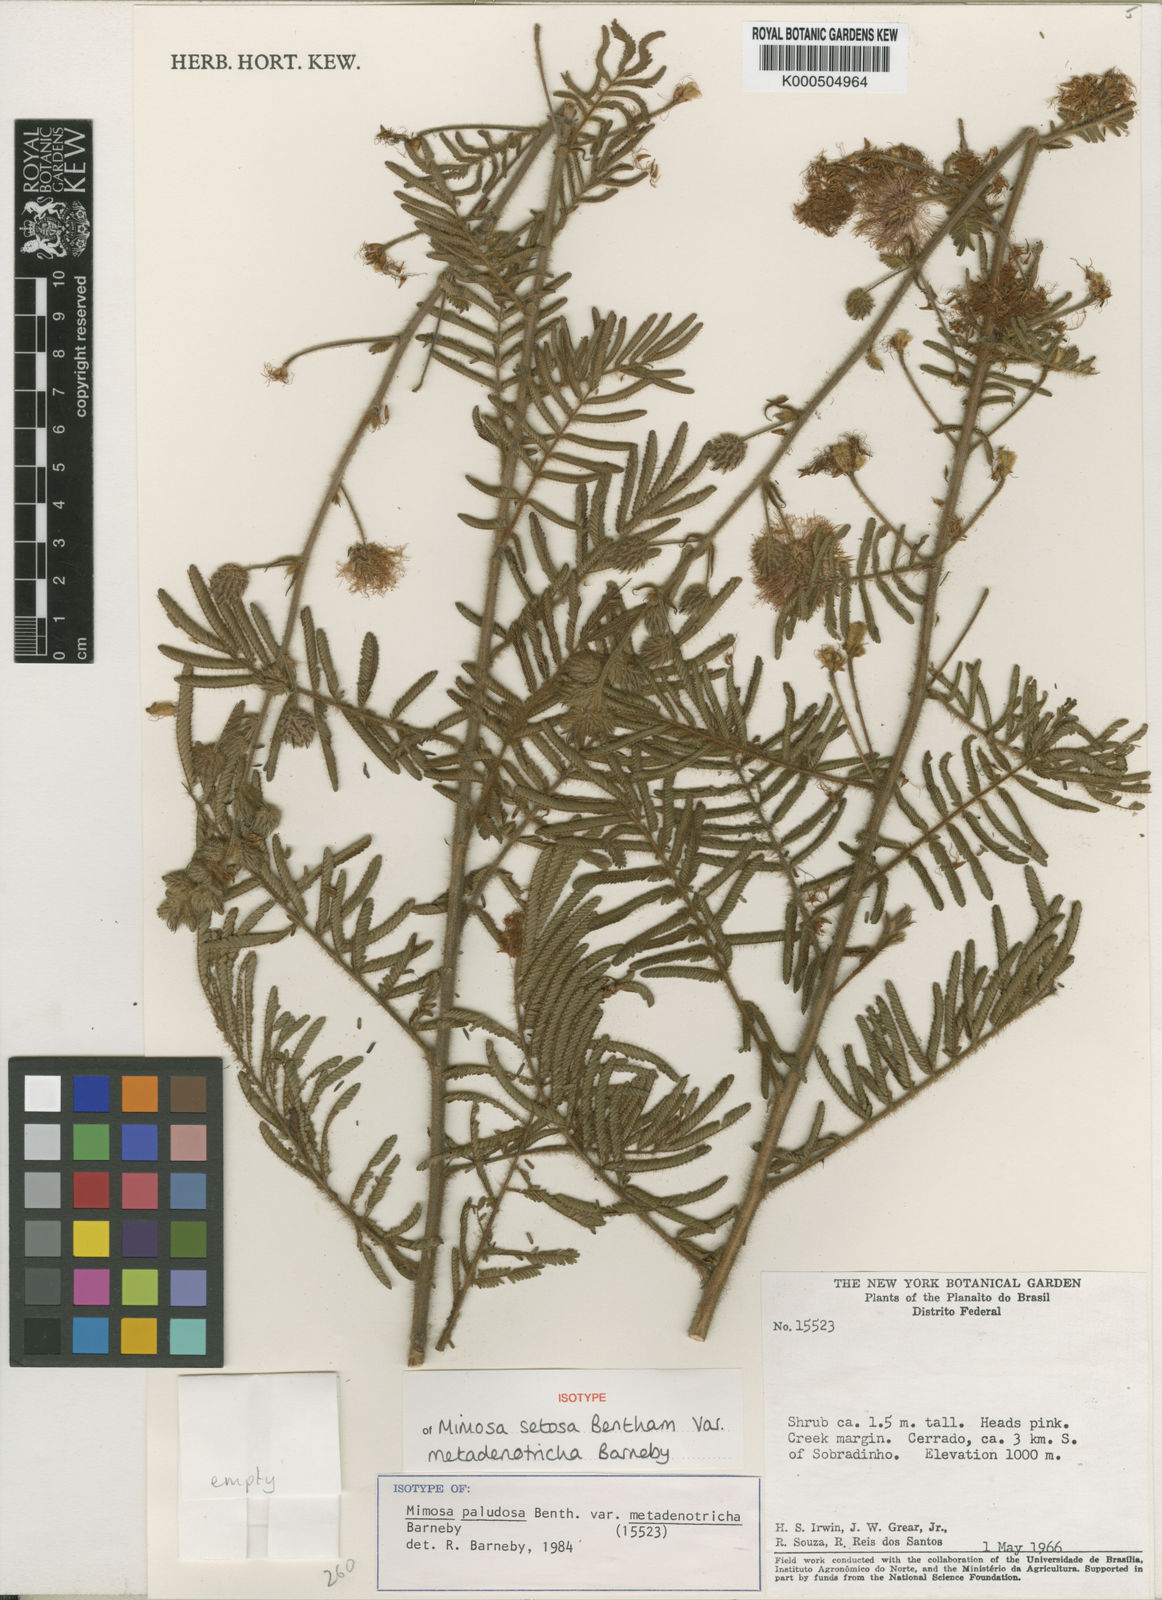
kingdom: Plantae
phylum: Tracheophyta
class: Magnoliopsida
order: Fabales
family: Fabaceae
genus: Mimosa
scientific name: Mimosa setosa
